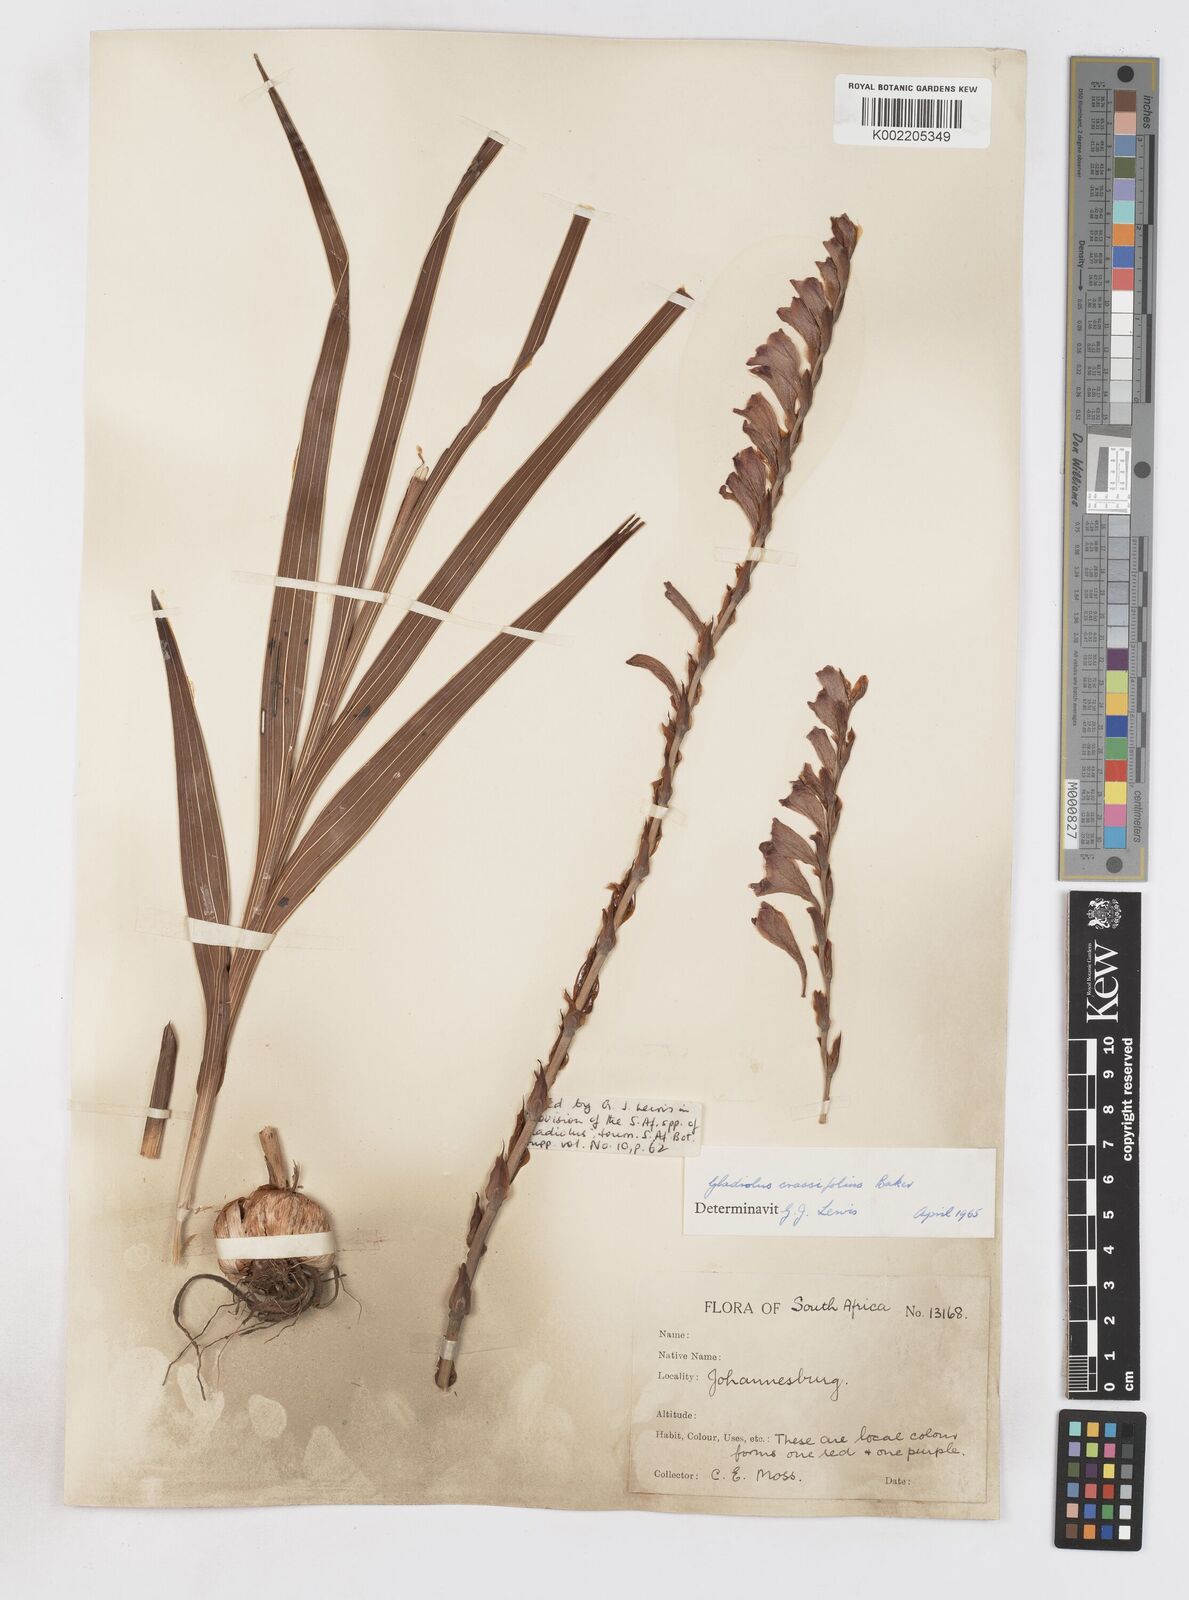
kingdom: Plantae
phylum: Tracheophyta
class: Liliopsida
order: Asparagales
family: Iridaceae
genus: Gladiolus
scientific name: Gladiolus crassifolius
